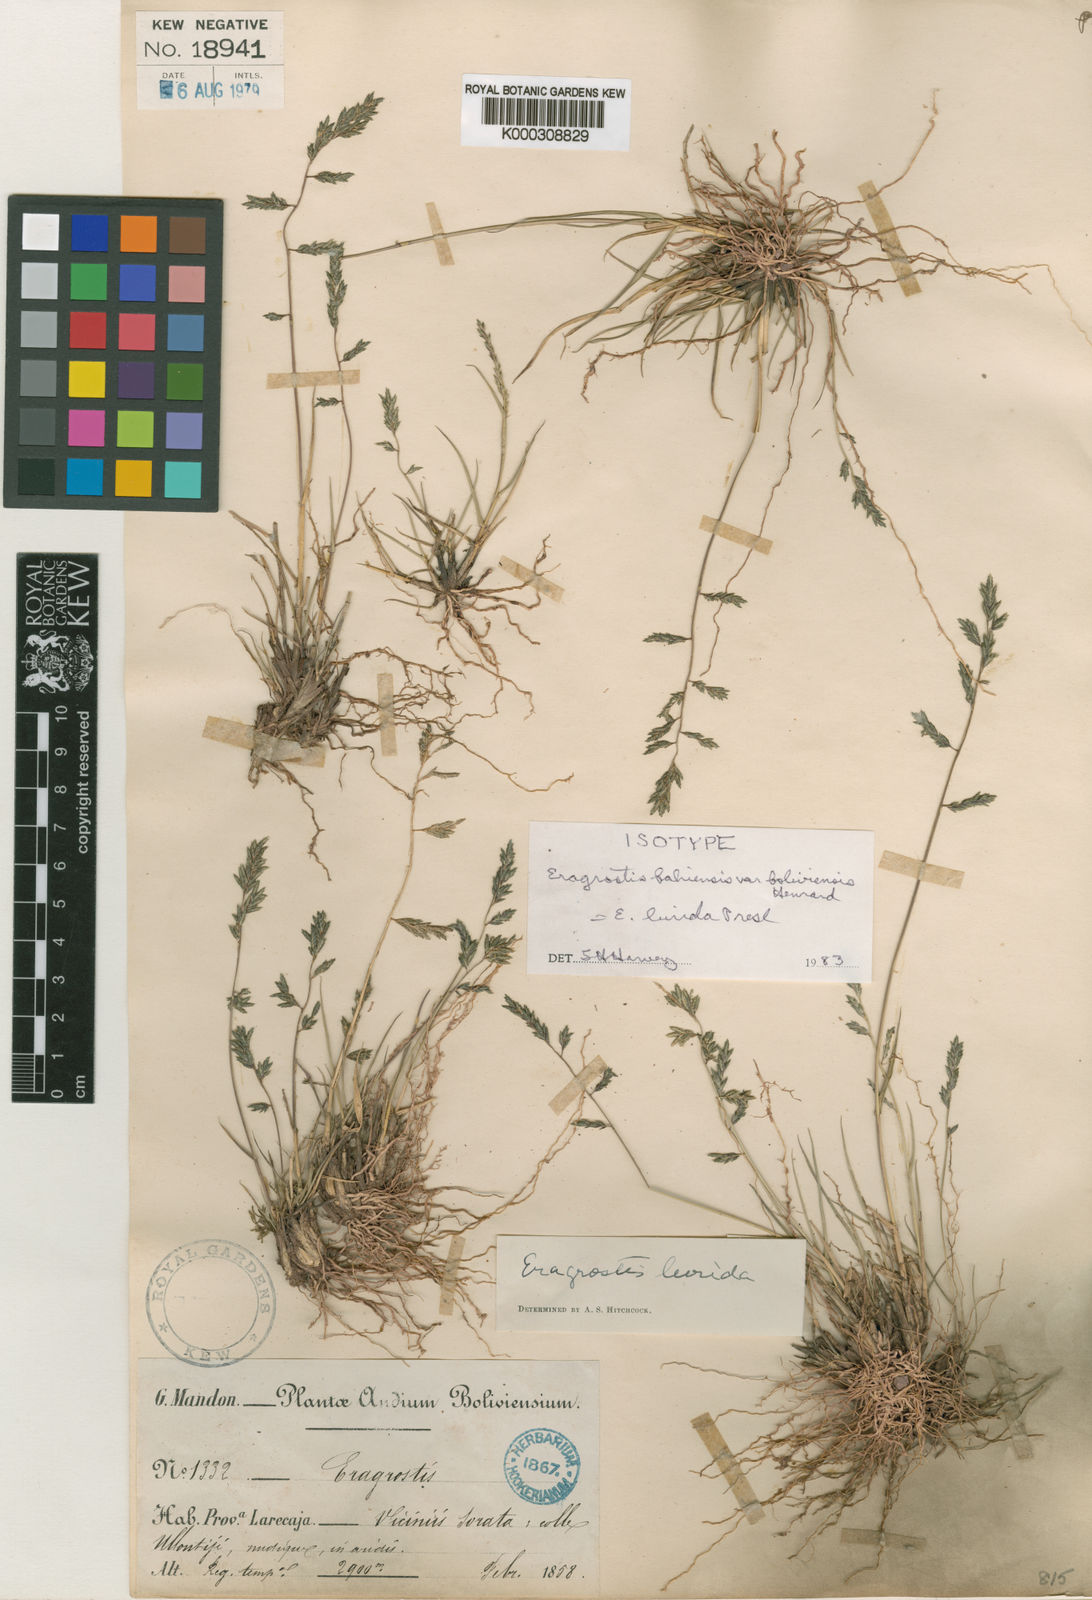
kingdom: Plantae
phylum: Tracheophyta
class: Liliopsida
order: Poales
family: Poaceae
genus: Eragrostis
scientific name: Eragrostis lurida
